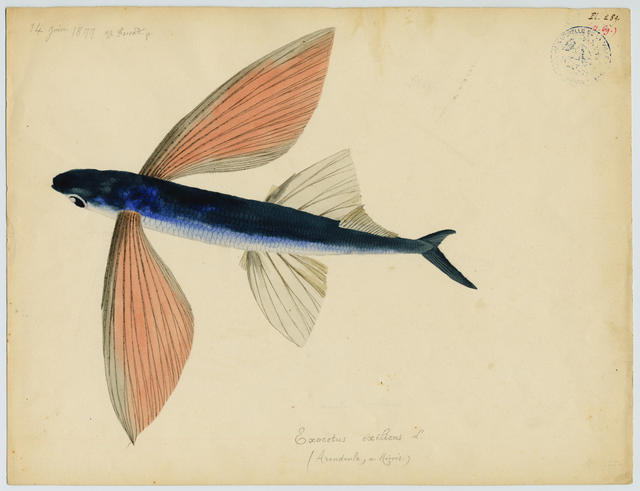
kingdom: Animalia
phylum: Chordata
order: Beloniformes
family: Exocoetidae
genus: Cheilopogon
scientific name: Cheilopogon heterurus
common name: Mediterranean flyingfish
